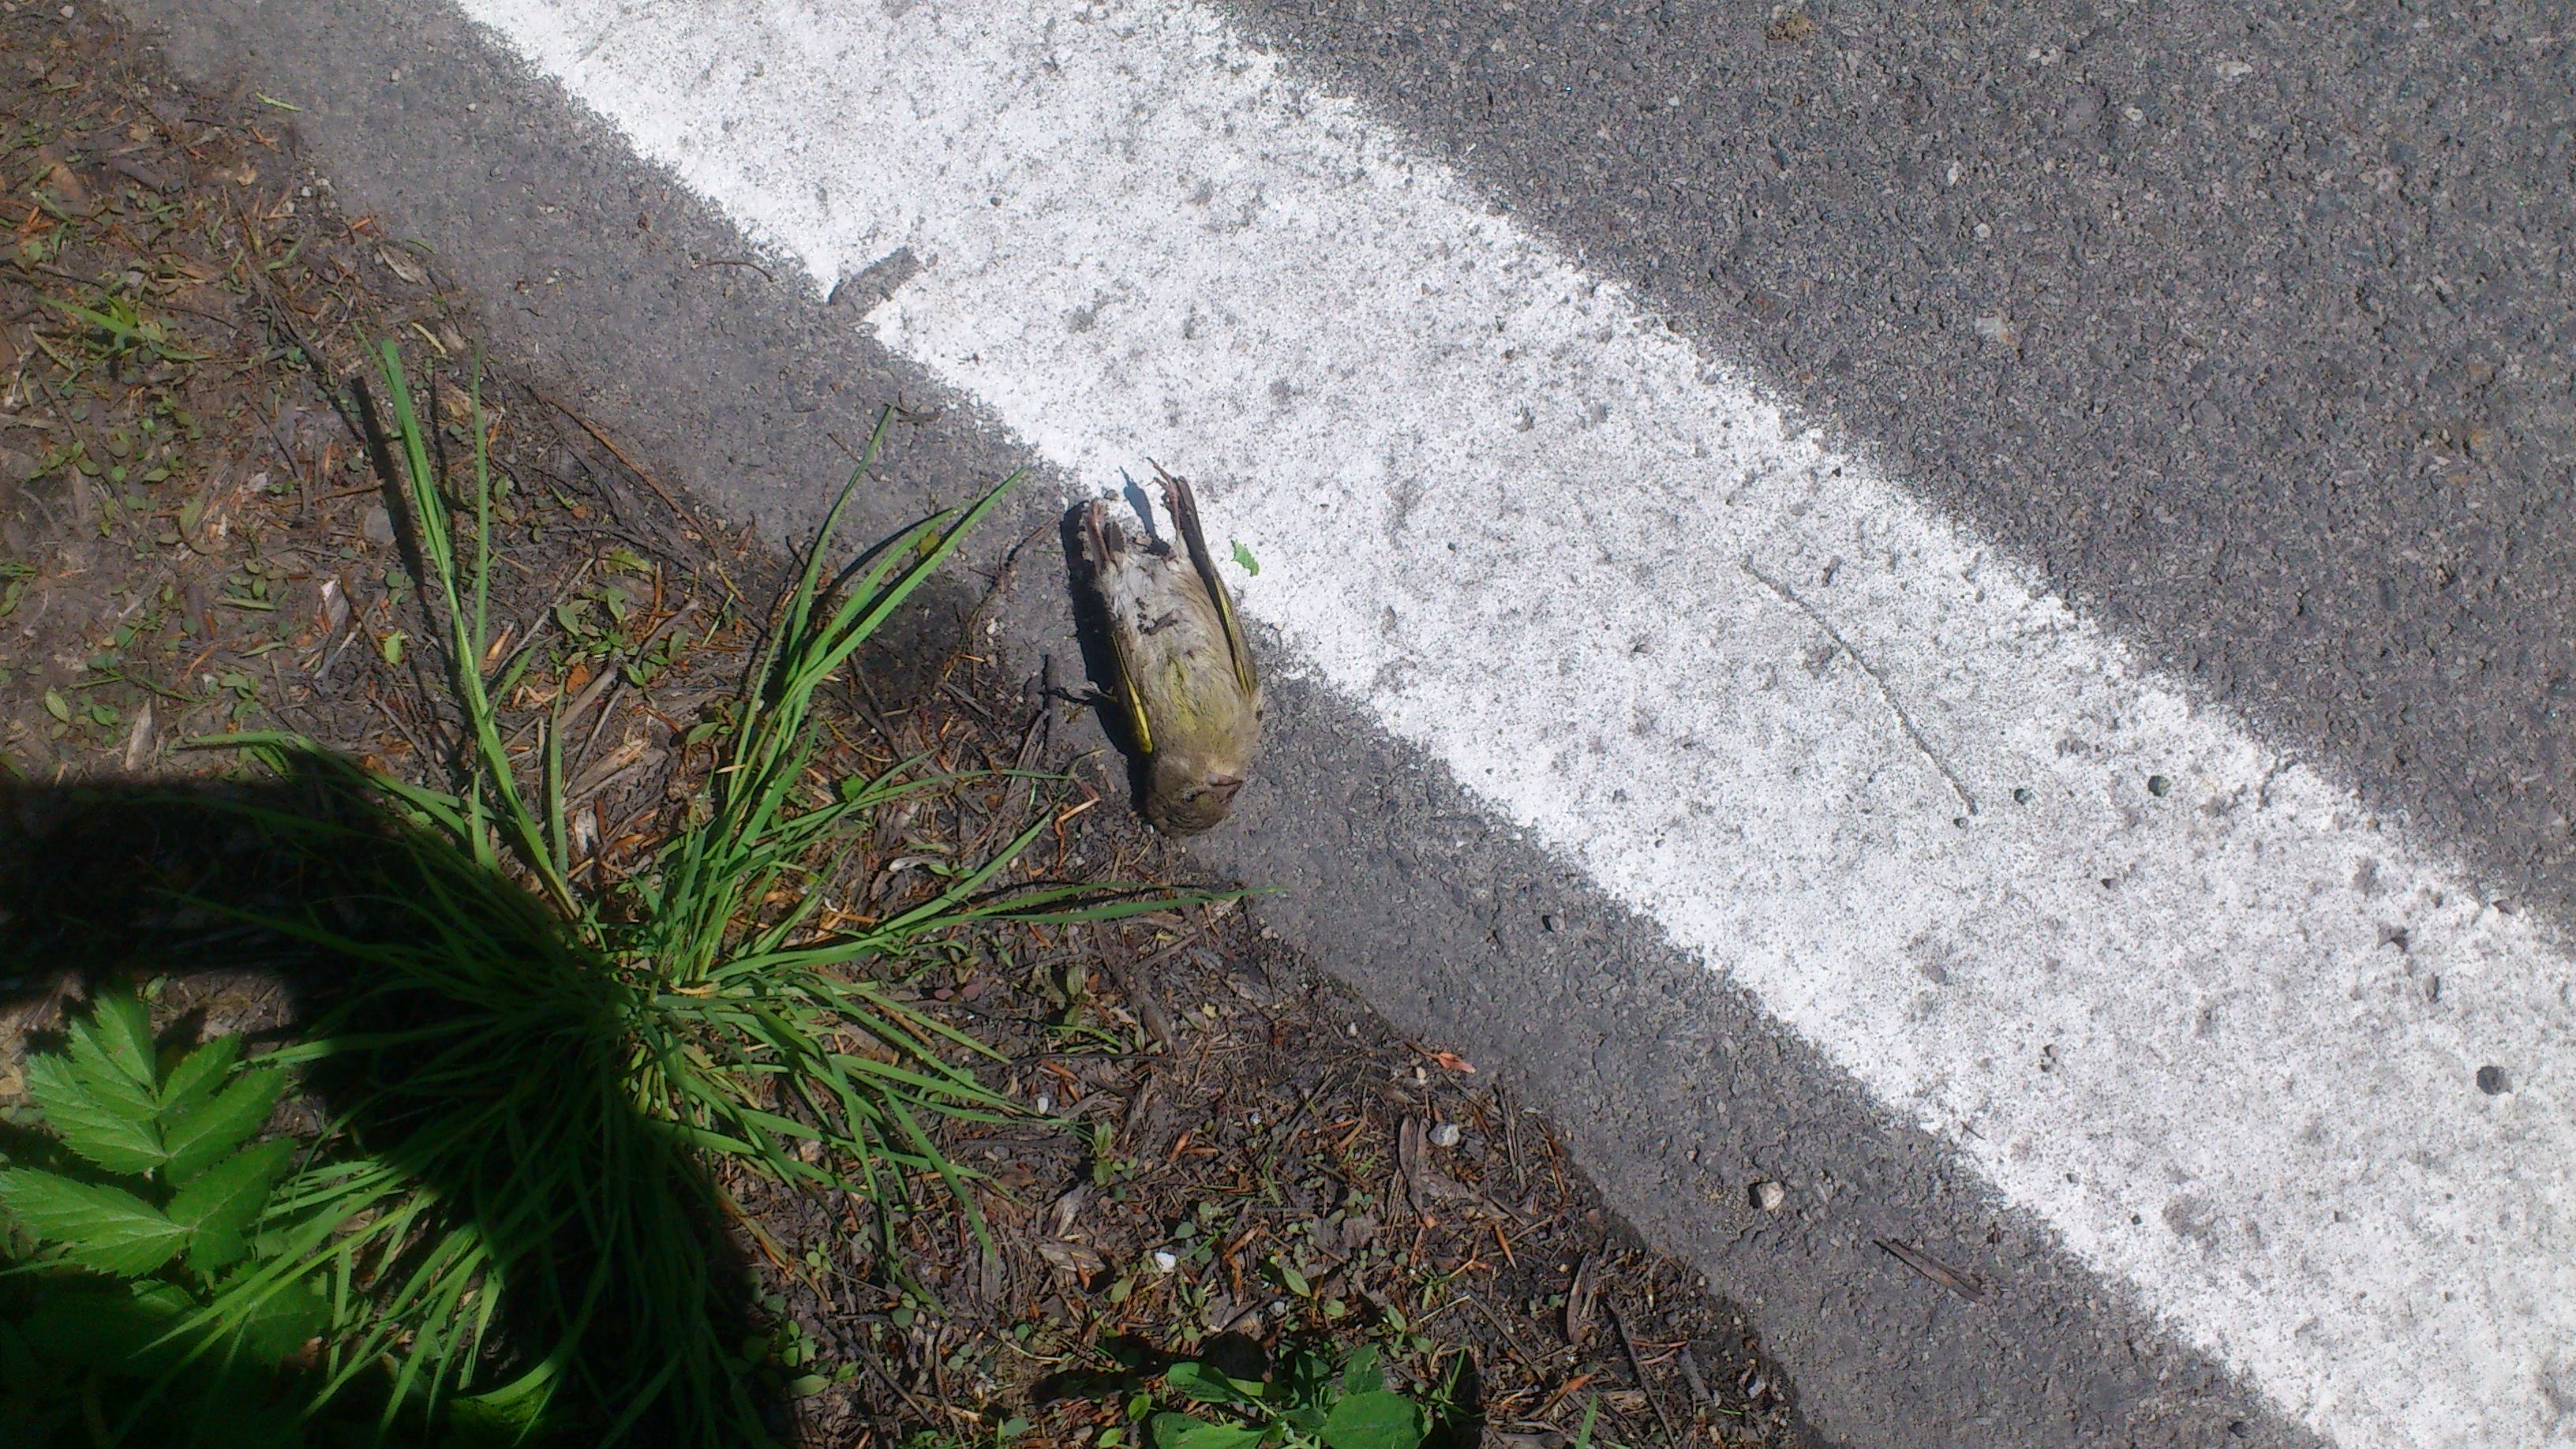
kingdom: Plantae
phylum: Tracheophyta
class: Liliopsida
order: Poales
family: Poaceae
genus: Chloris
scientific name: Chloris chloris
